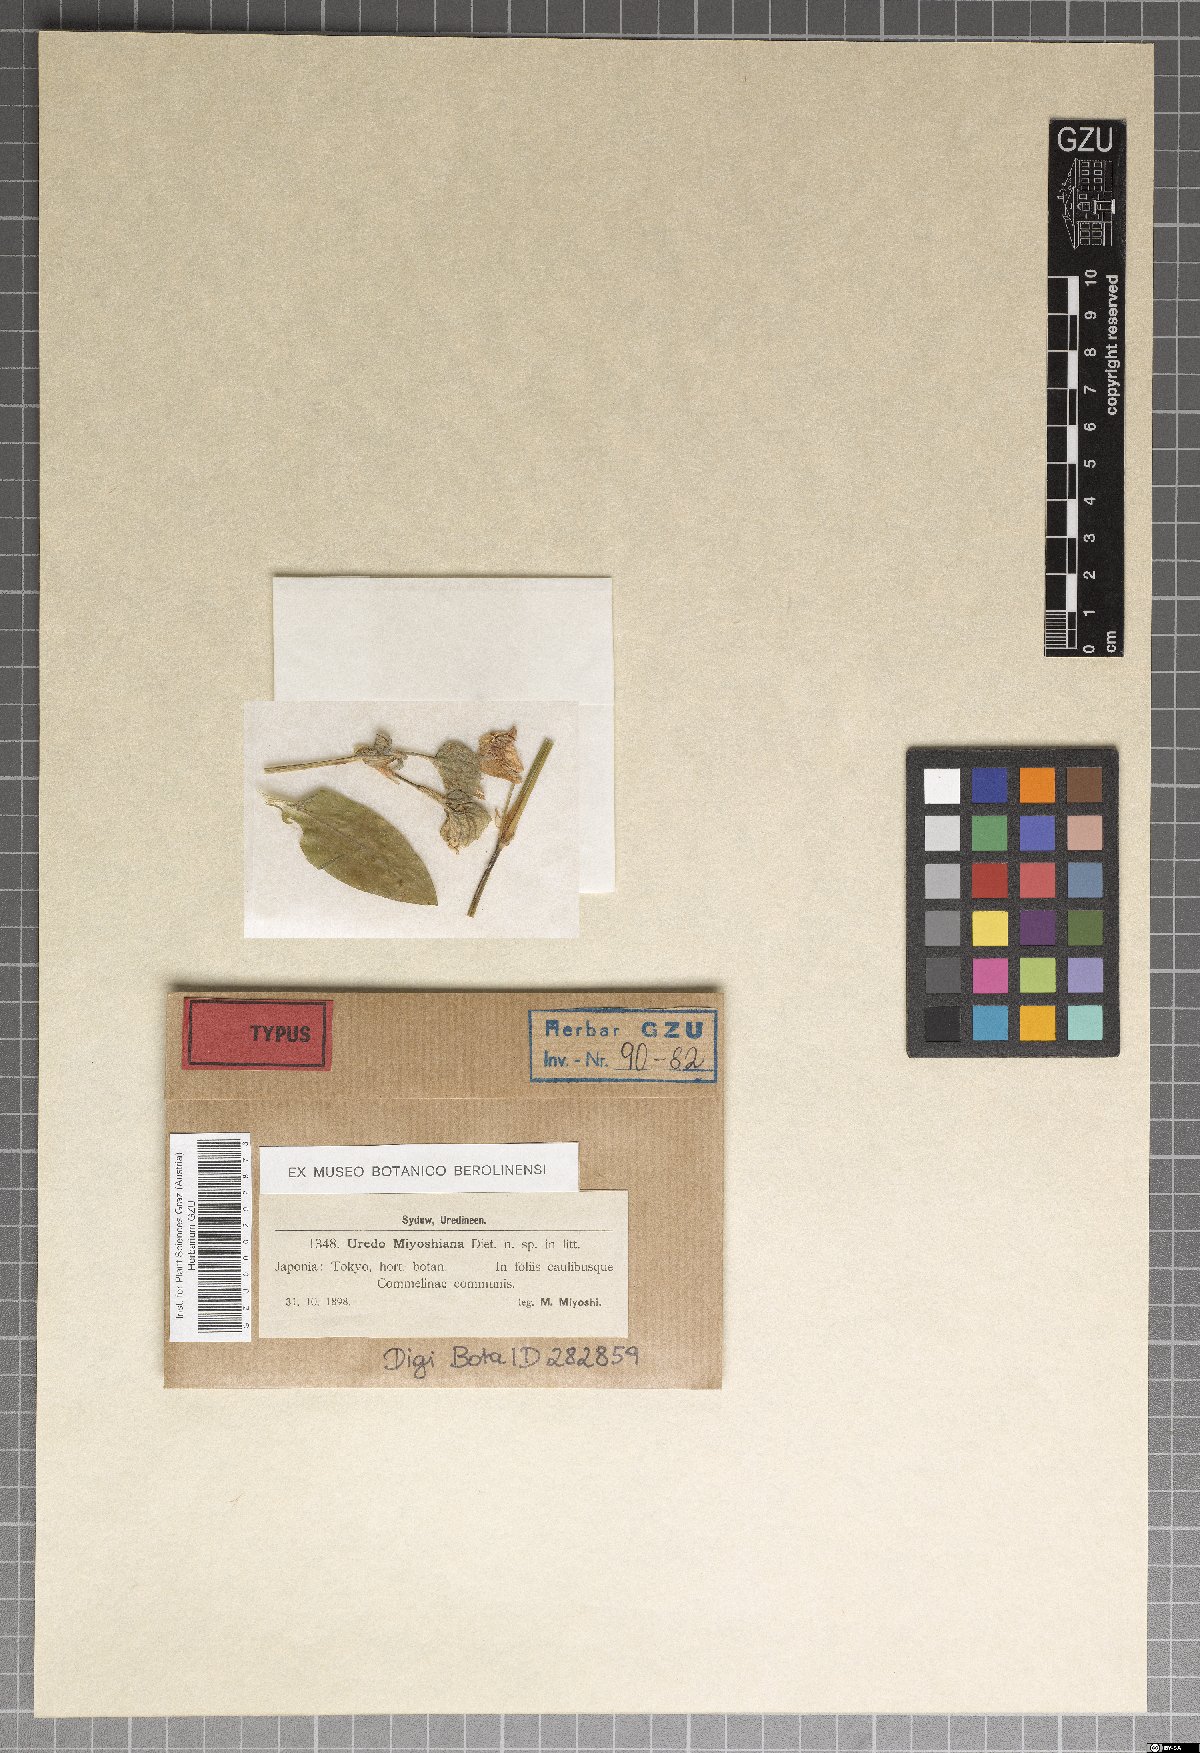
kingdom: Plantae
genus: Uredo
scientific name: Uredo
